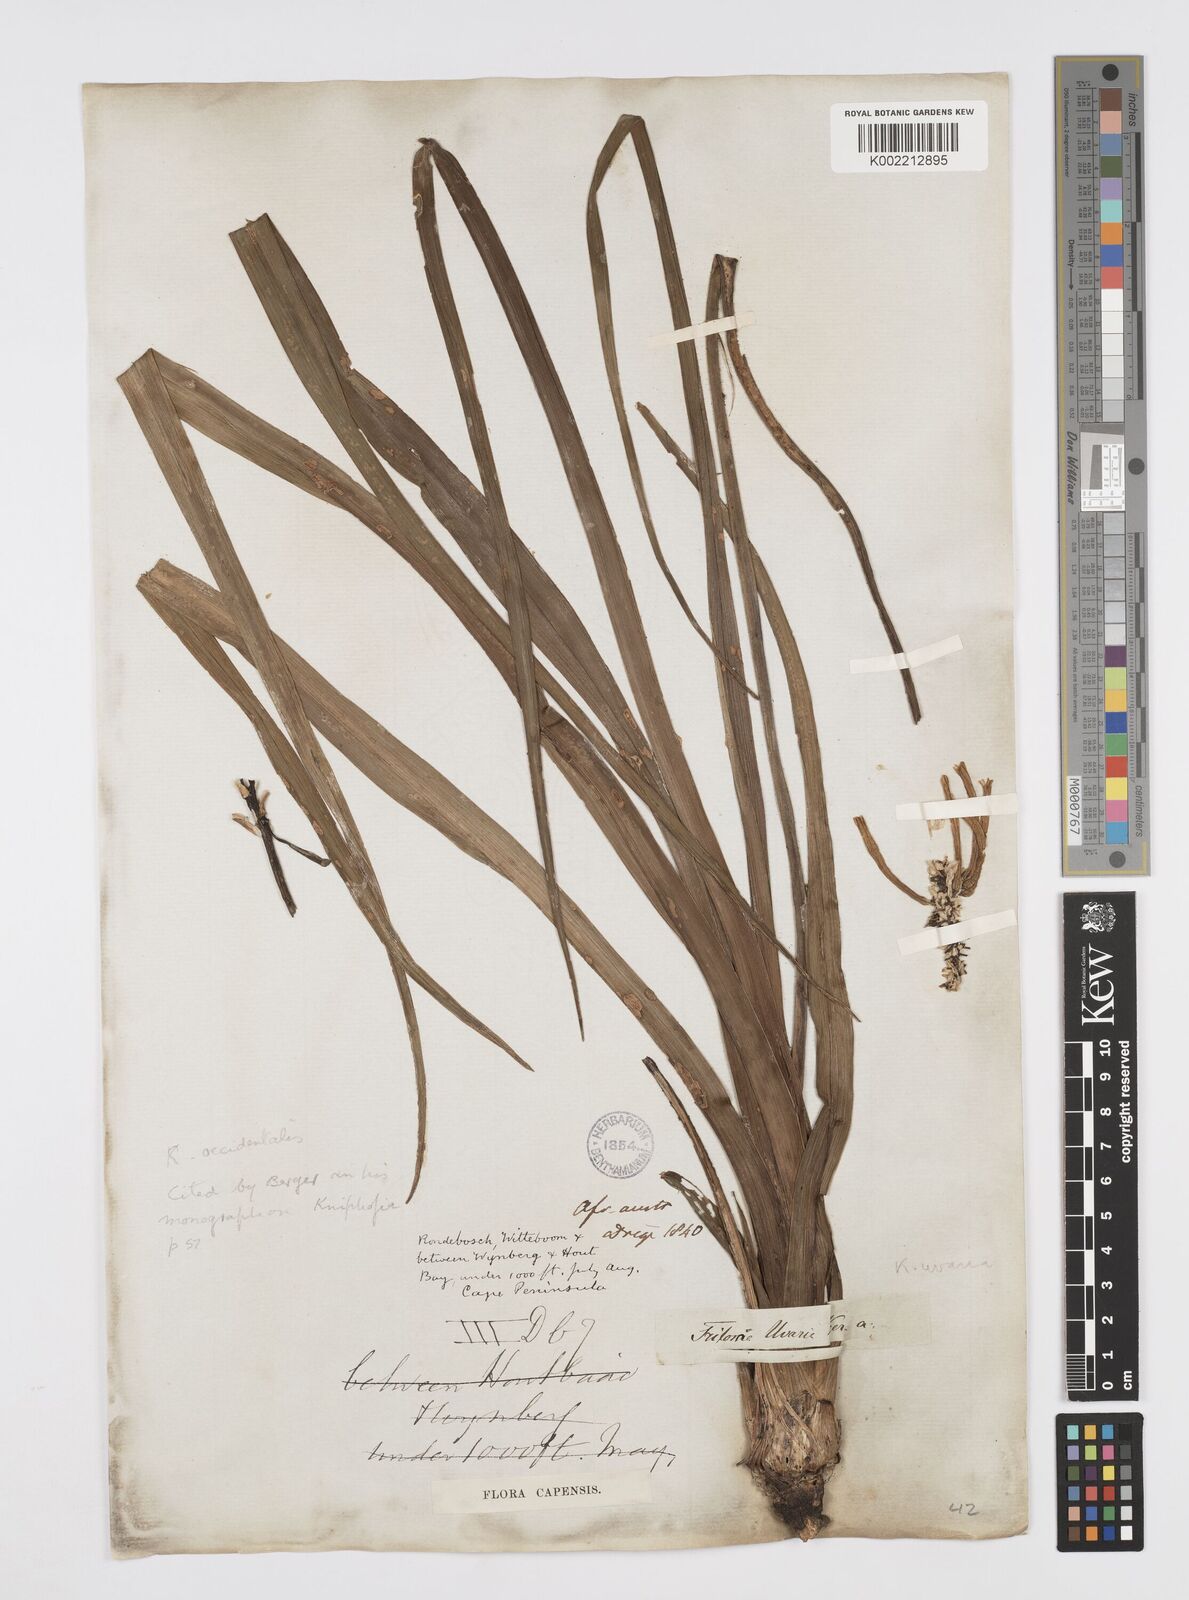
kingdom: Plantae
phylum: Tracheophyta
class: Liliopsida
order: Asparagales
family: Asphodelaceae
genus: Kniphofia
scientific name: Kniphofia uvaria
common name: Red-hot-poker
